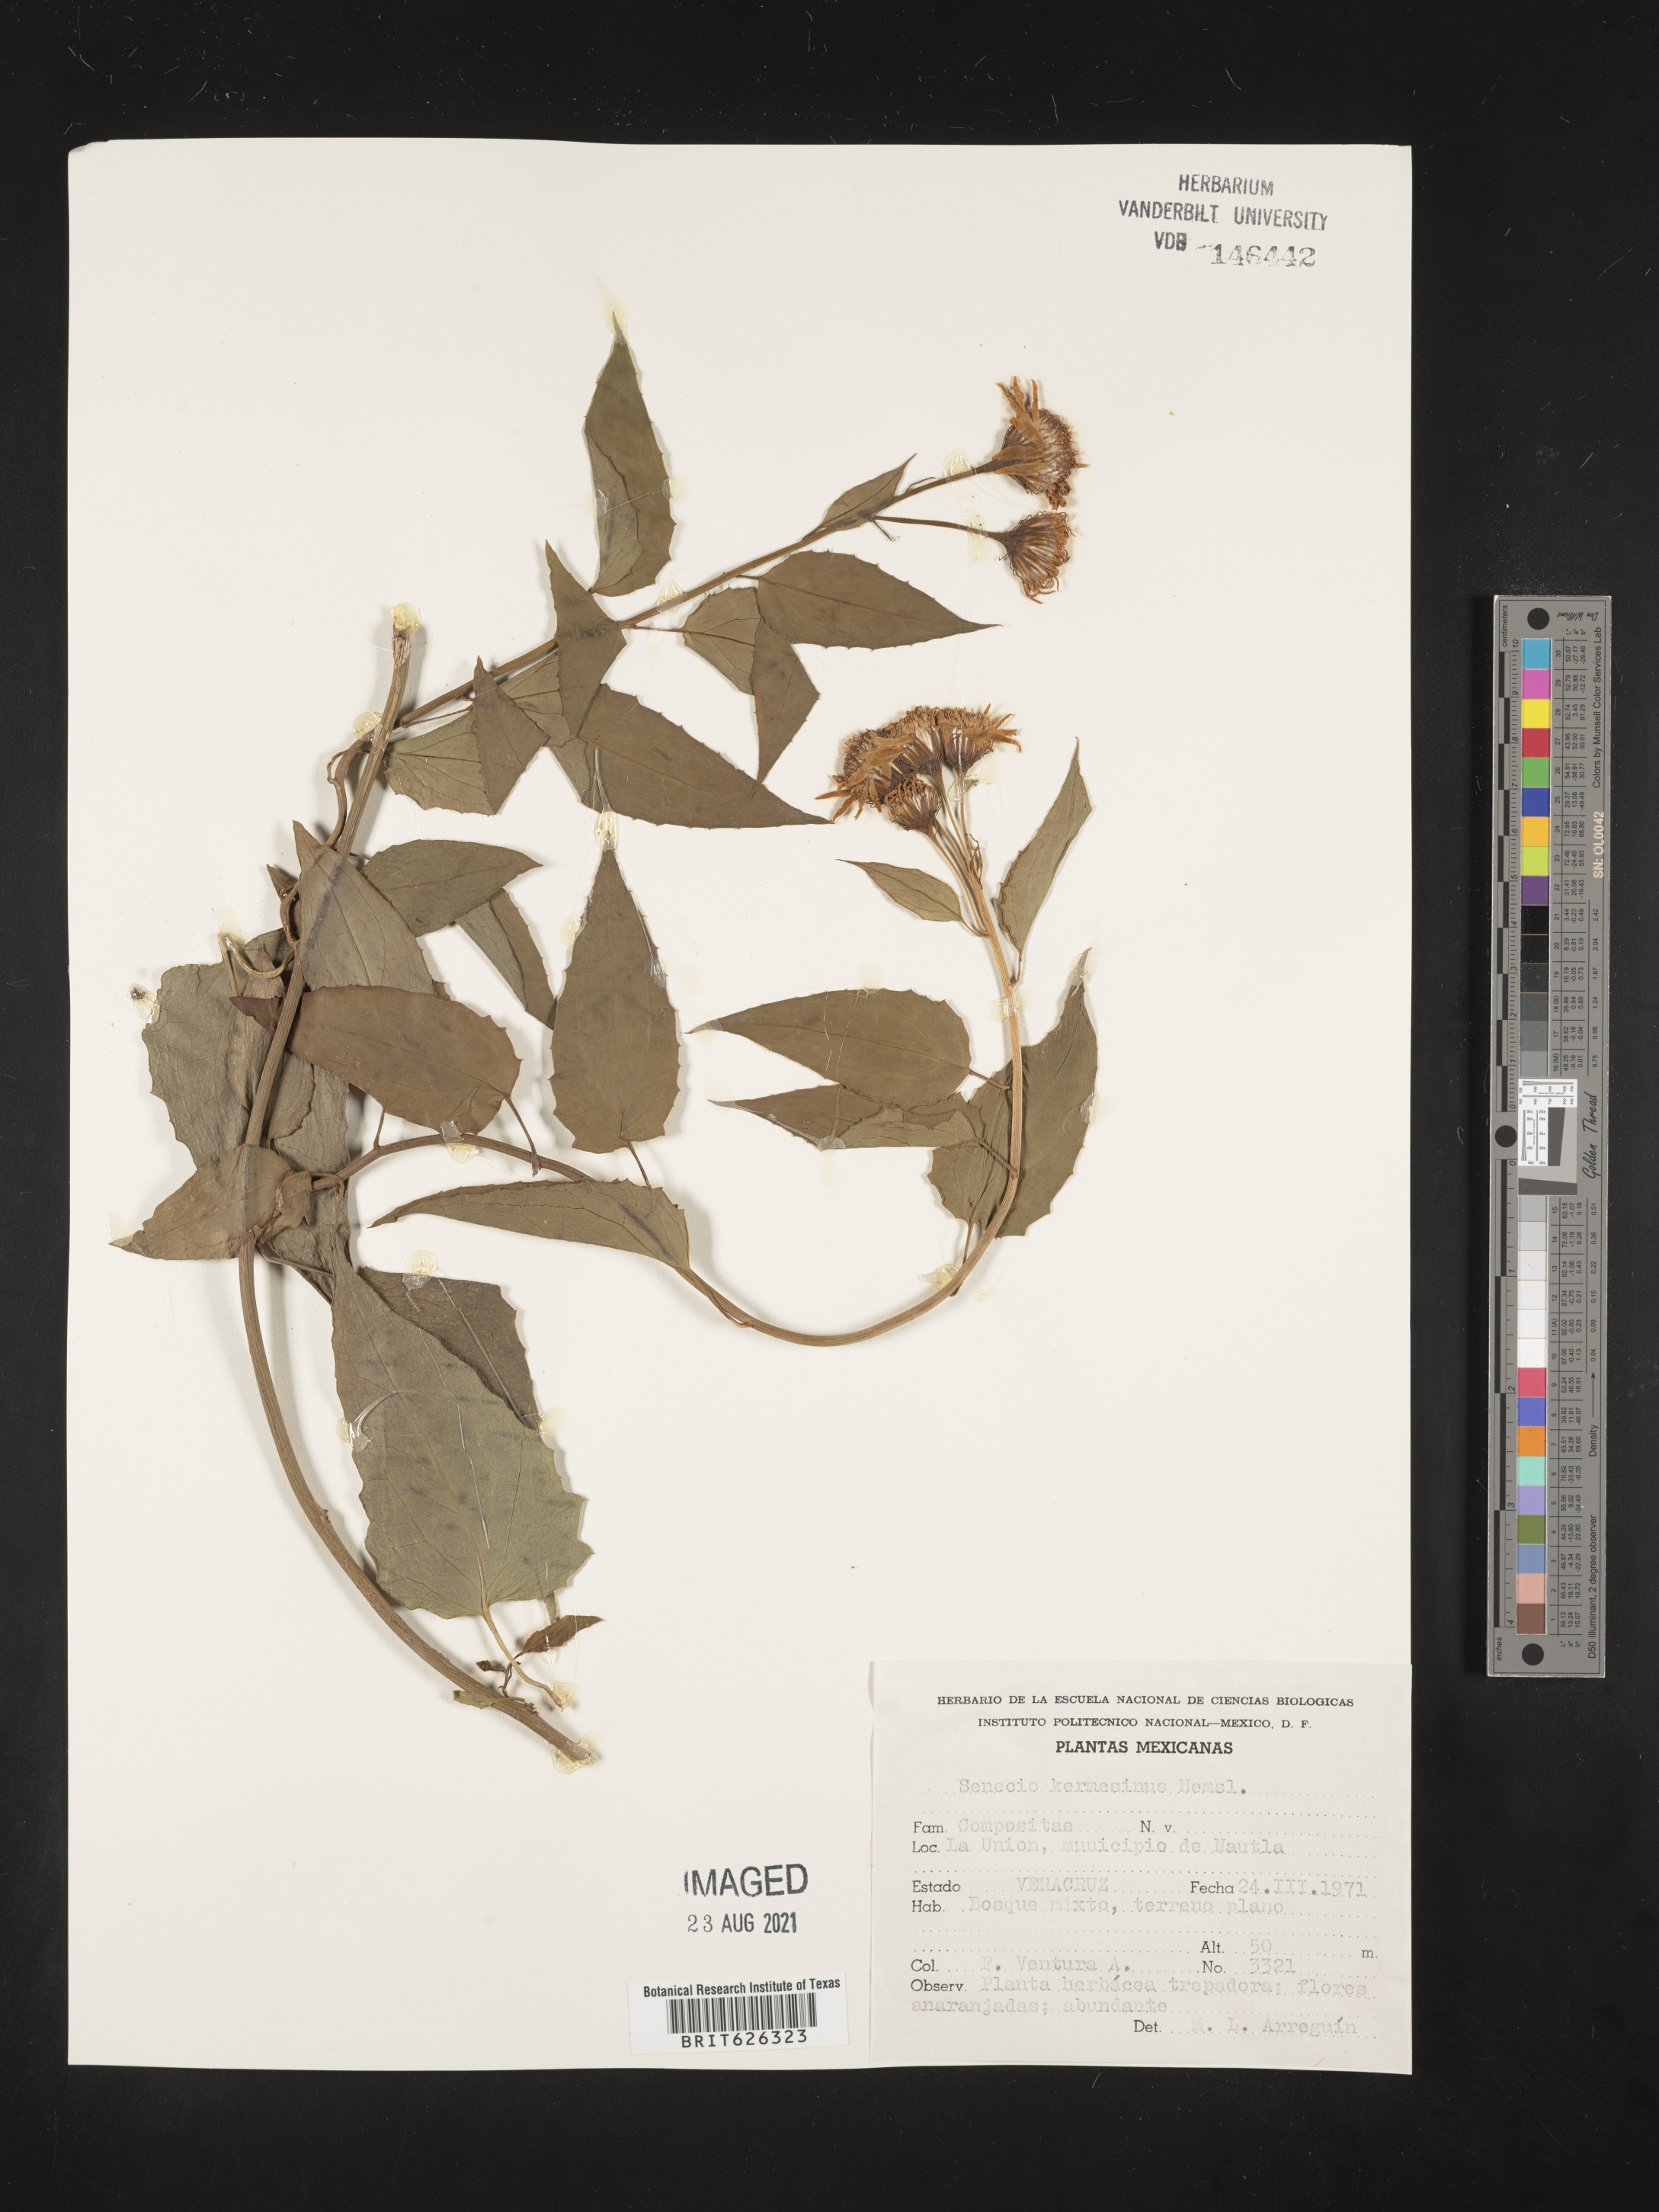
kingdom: Plantae
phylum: Tracheophyta
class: Magnoliopsida
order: Asterales
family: Asteraceae
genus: Senecio
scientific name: Senecio
